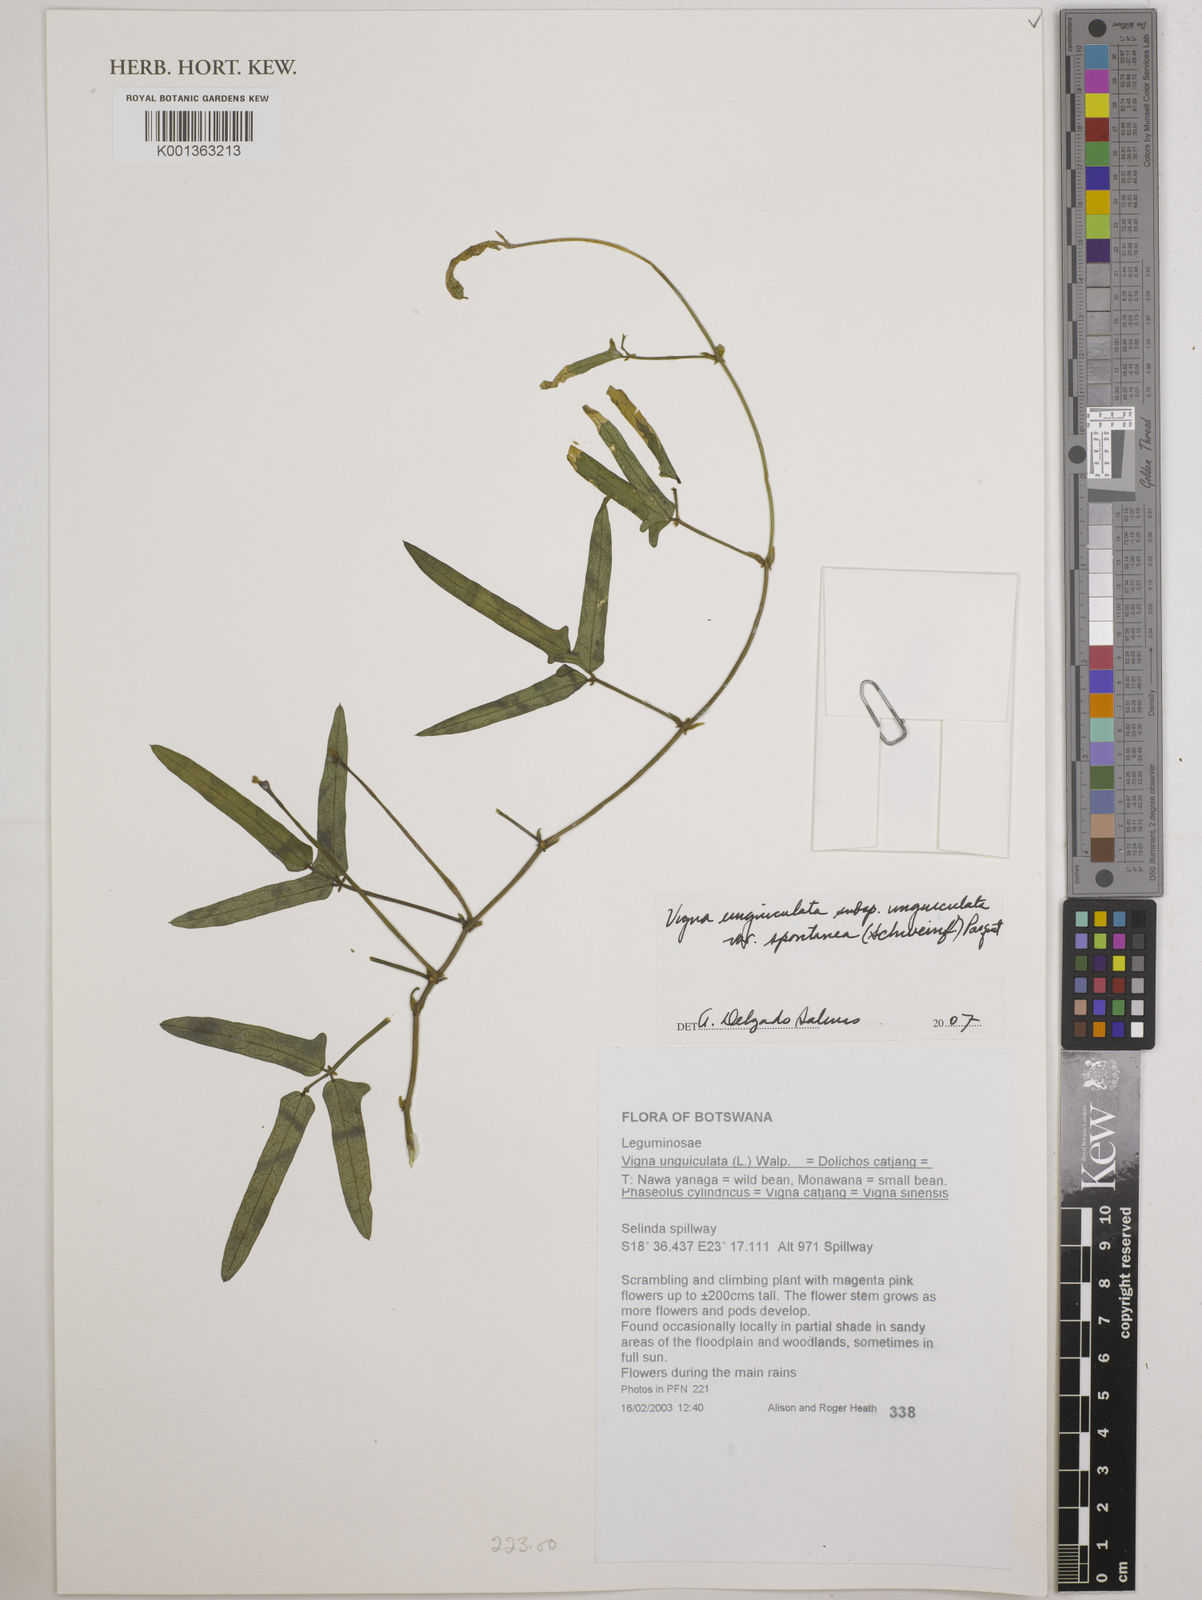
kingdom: Plantae
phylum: Tracheophyta
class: Magnoliopsida
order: Fabales
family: Fabaceae
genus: Vigna
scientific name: Vigna unguiculata
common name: Cowpea
